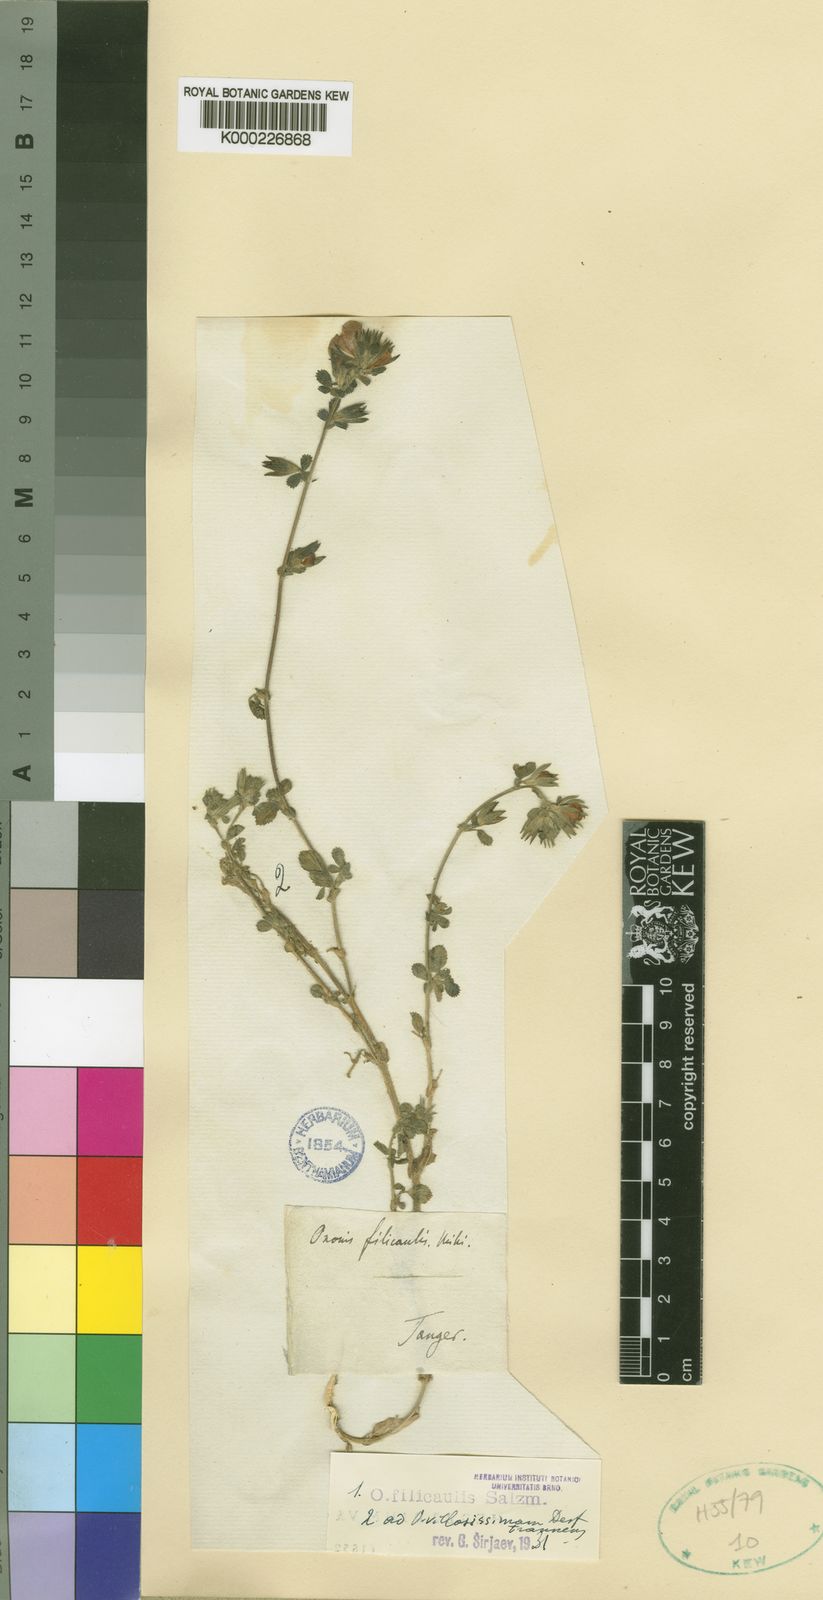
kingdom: Plantae
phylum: Tracheophyta
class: Magnoliopsida
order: Fabales
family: Fabaceae
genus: Ononis
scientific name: Ononis
